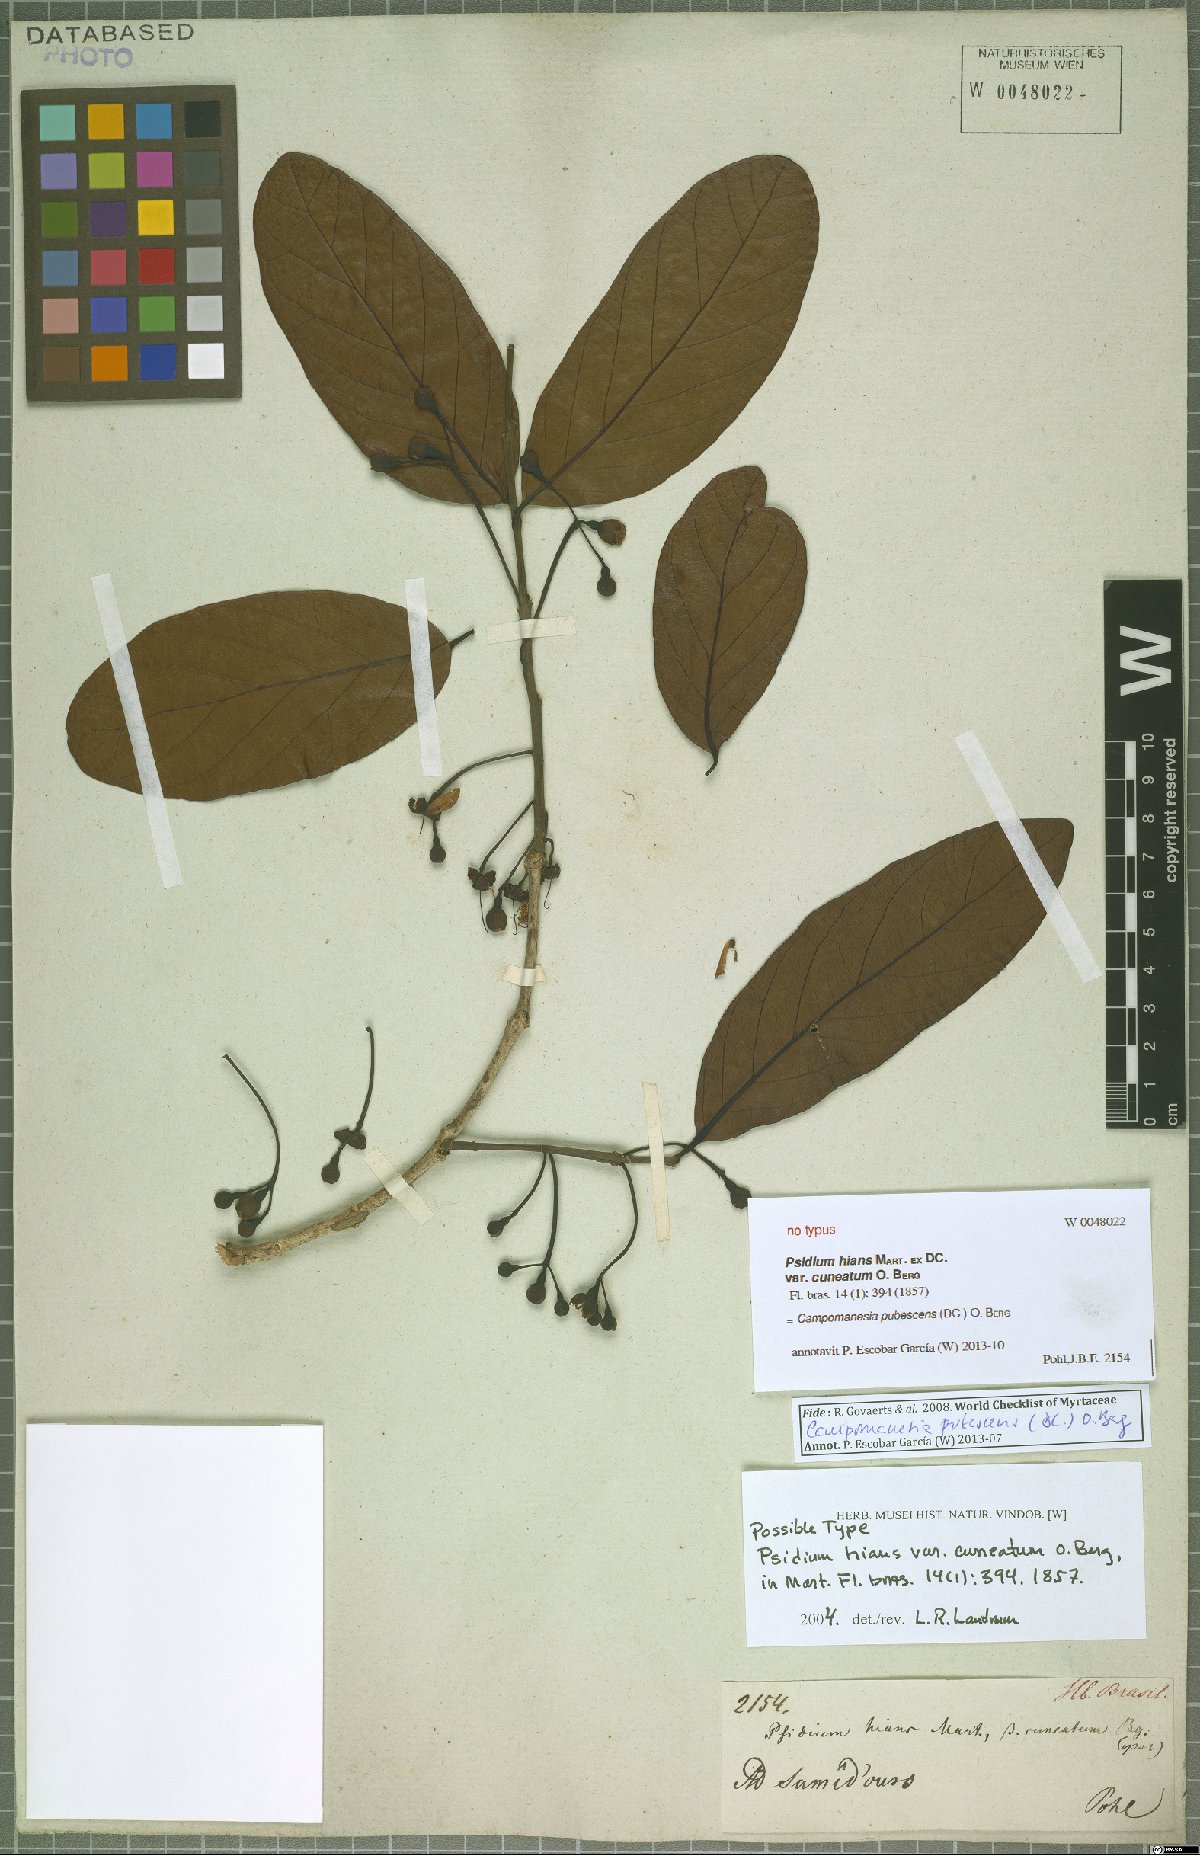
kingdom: Plantae
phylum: Tracheophyta
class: Magnoliopsida
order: Myrtales
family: Myrtaceae
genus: Campomanesia
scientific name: Campomanesia pubescens
